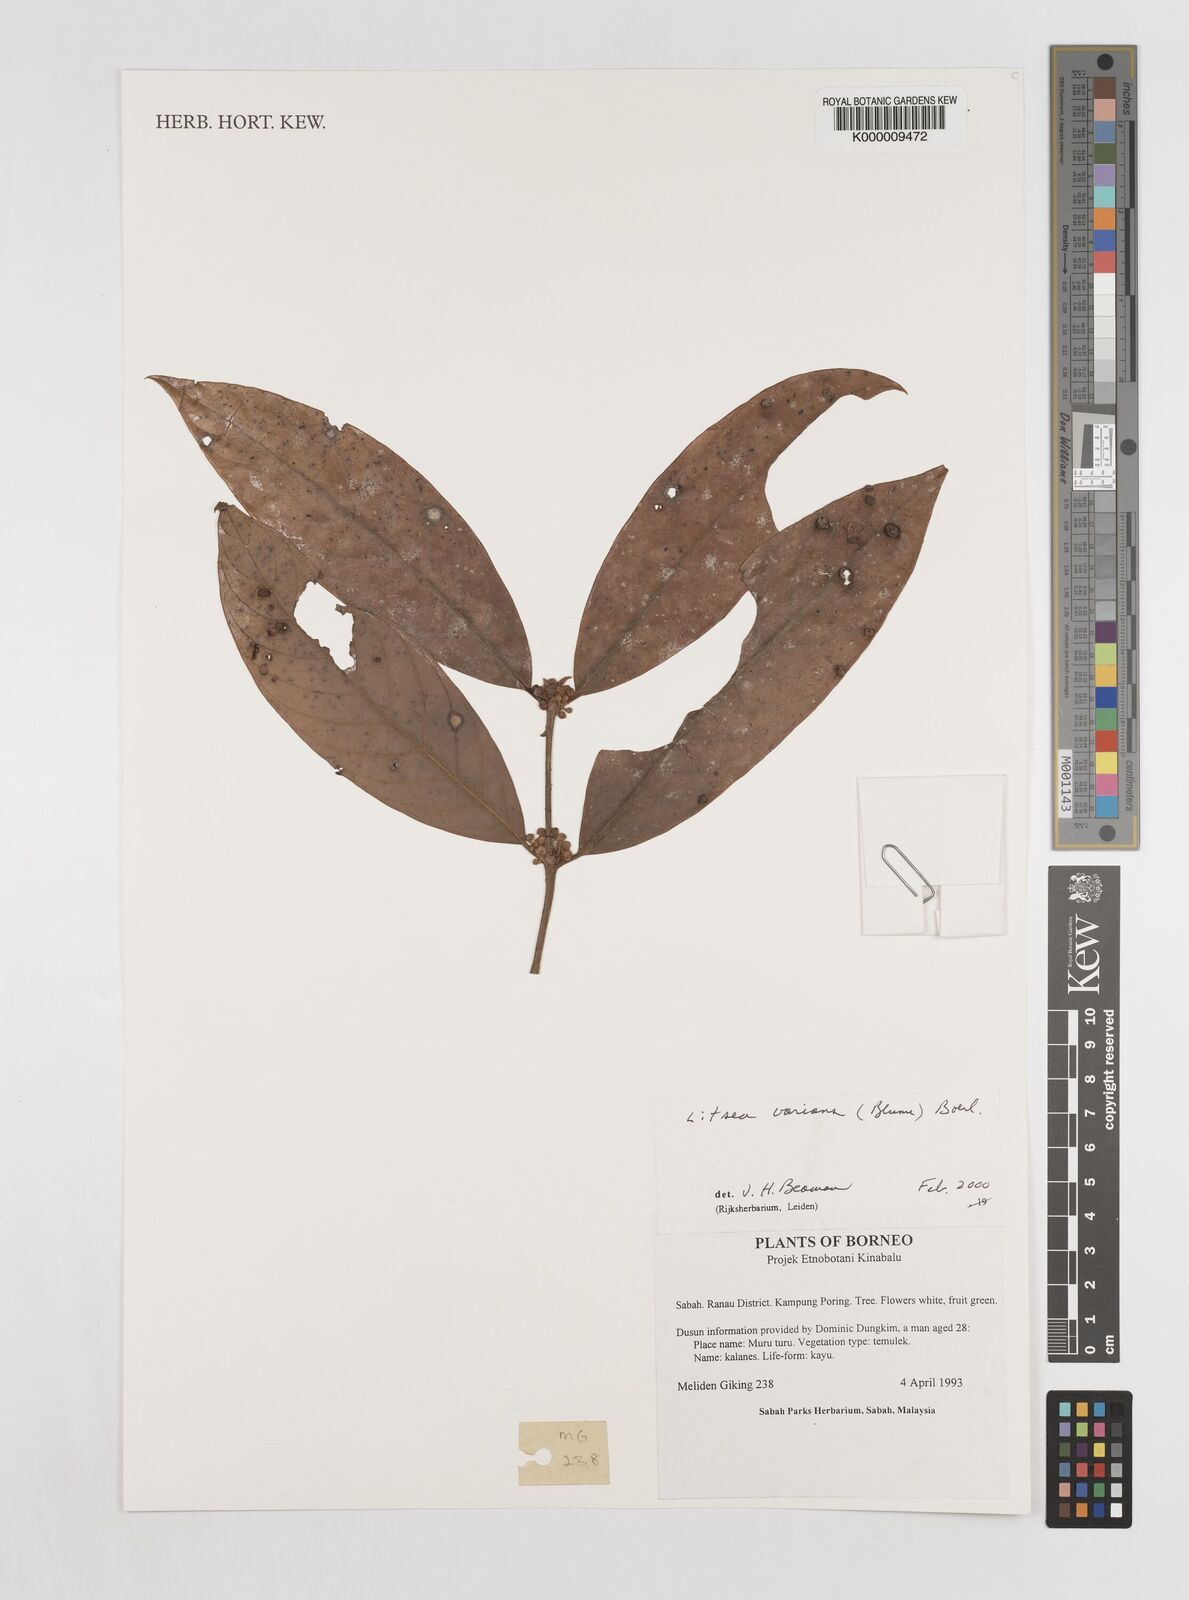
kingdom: Plantae
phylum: Tracheophyta
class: Magnoliopsida
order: Laurales
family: Lauraceae
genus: Litsea
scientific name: Litsea varians
